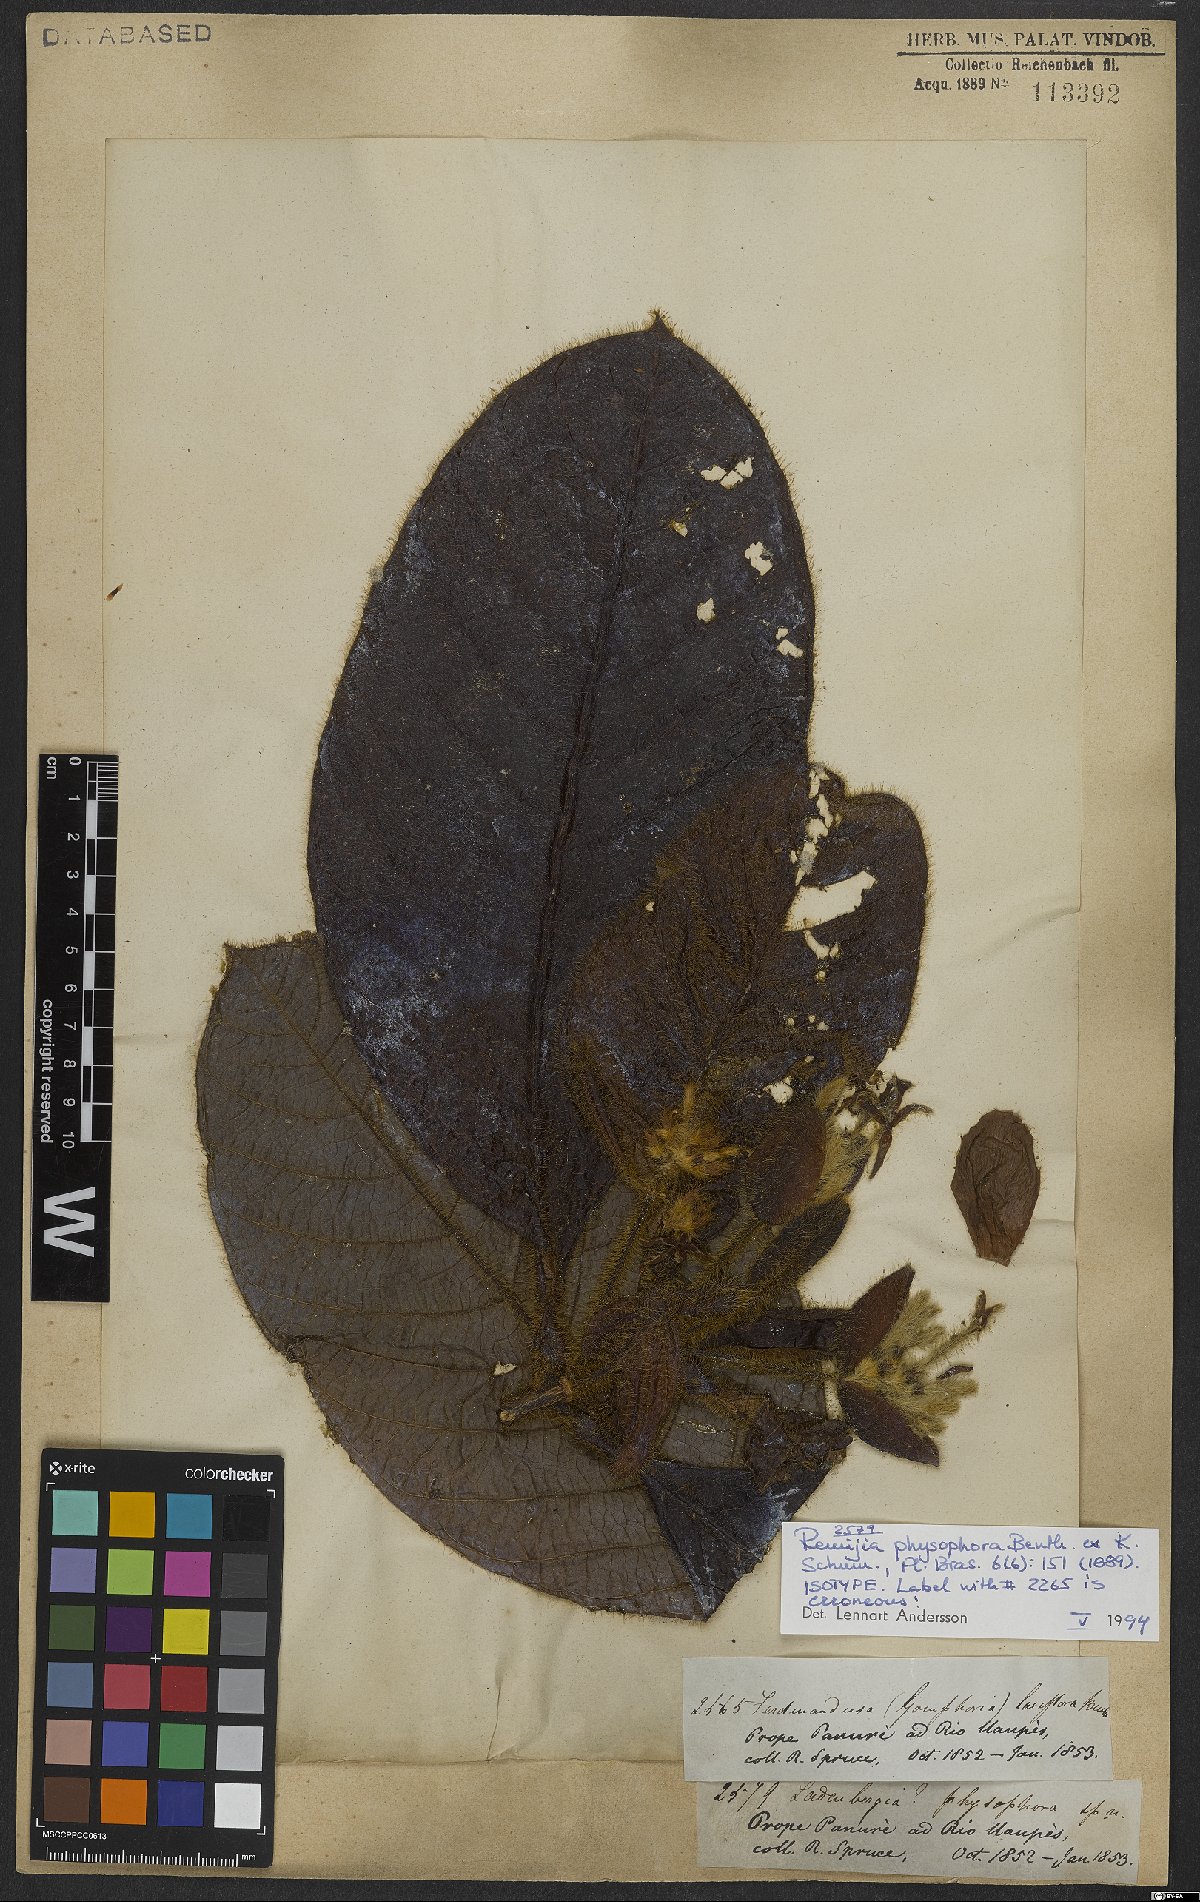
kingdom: Plantae
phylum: Tracheophyta
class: Magnoliopsida
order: Gentianales
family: Rubiaceae
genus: Remijia
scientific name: Remijia physophora
